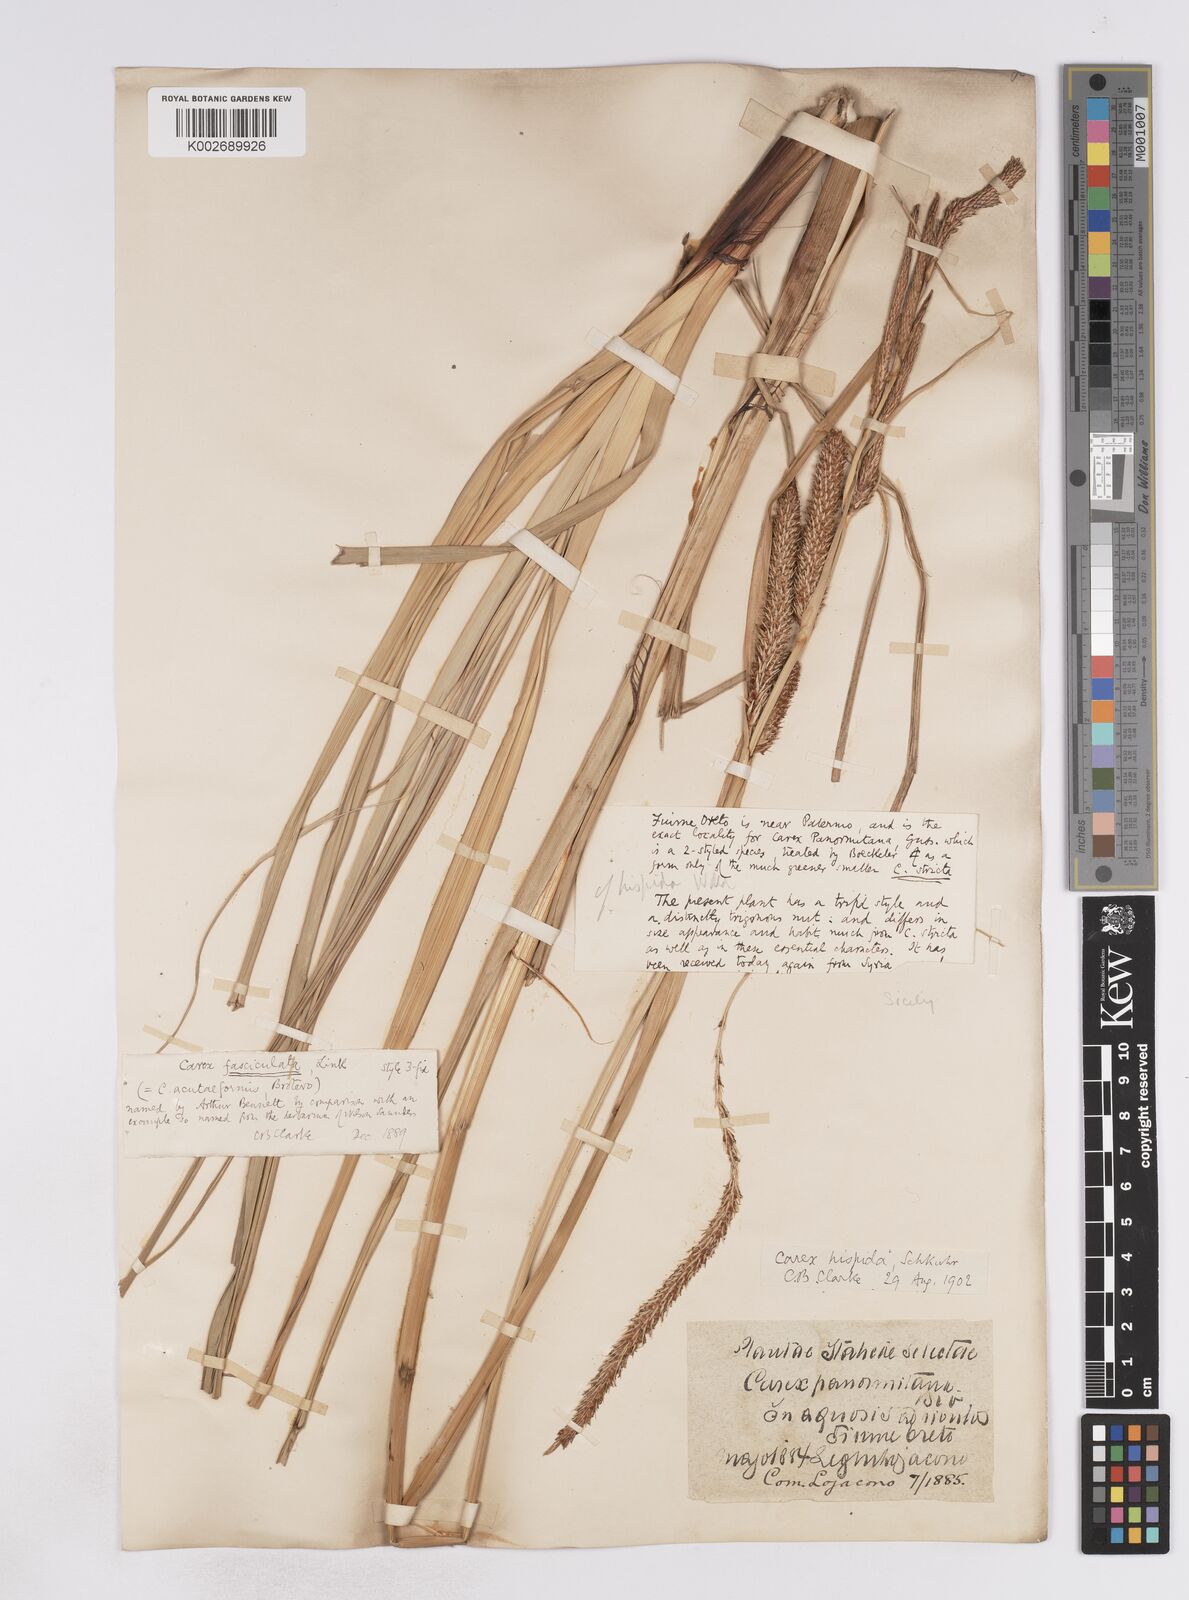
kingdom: Plantae
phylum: Tracheophyta
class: Liliopsida
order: Poales
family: Cyperaceae
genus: Carex
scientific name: Carex hispida
